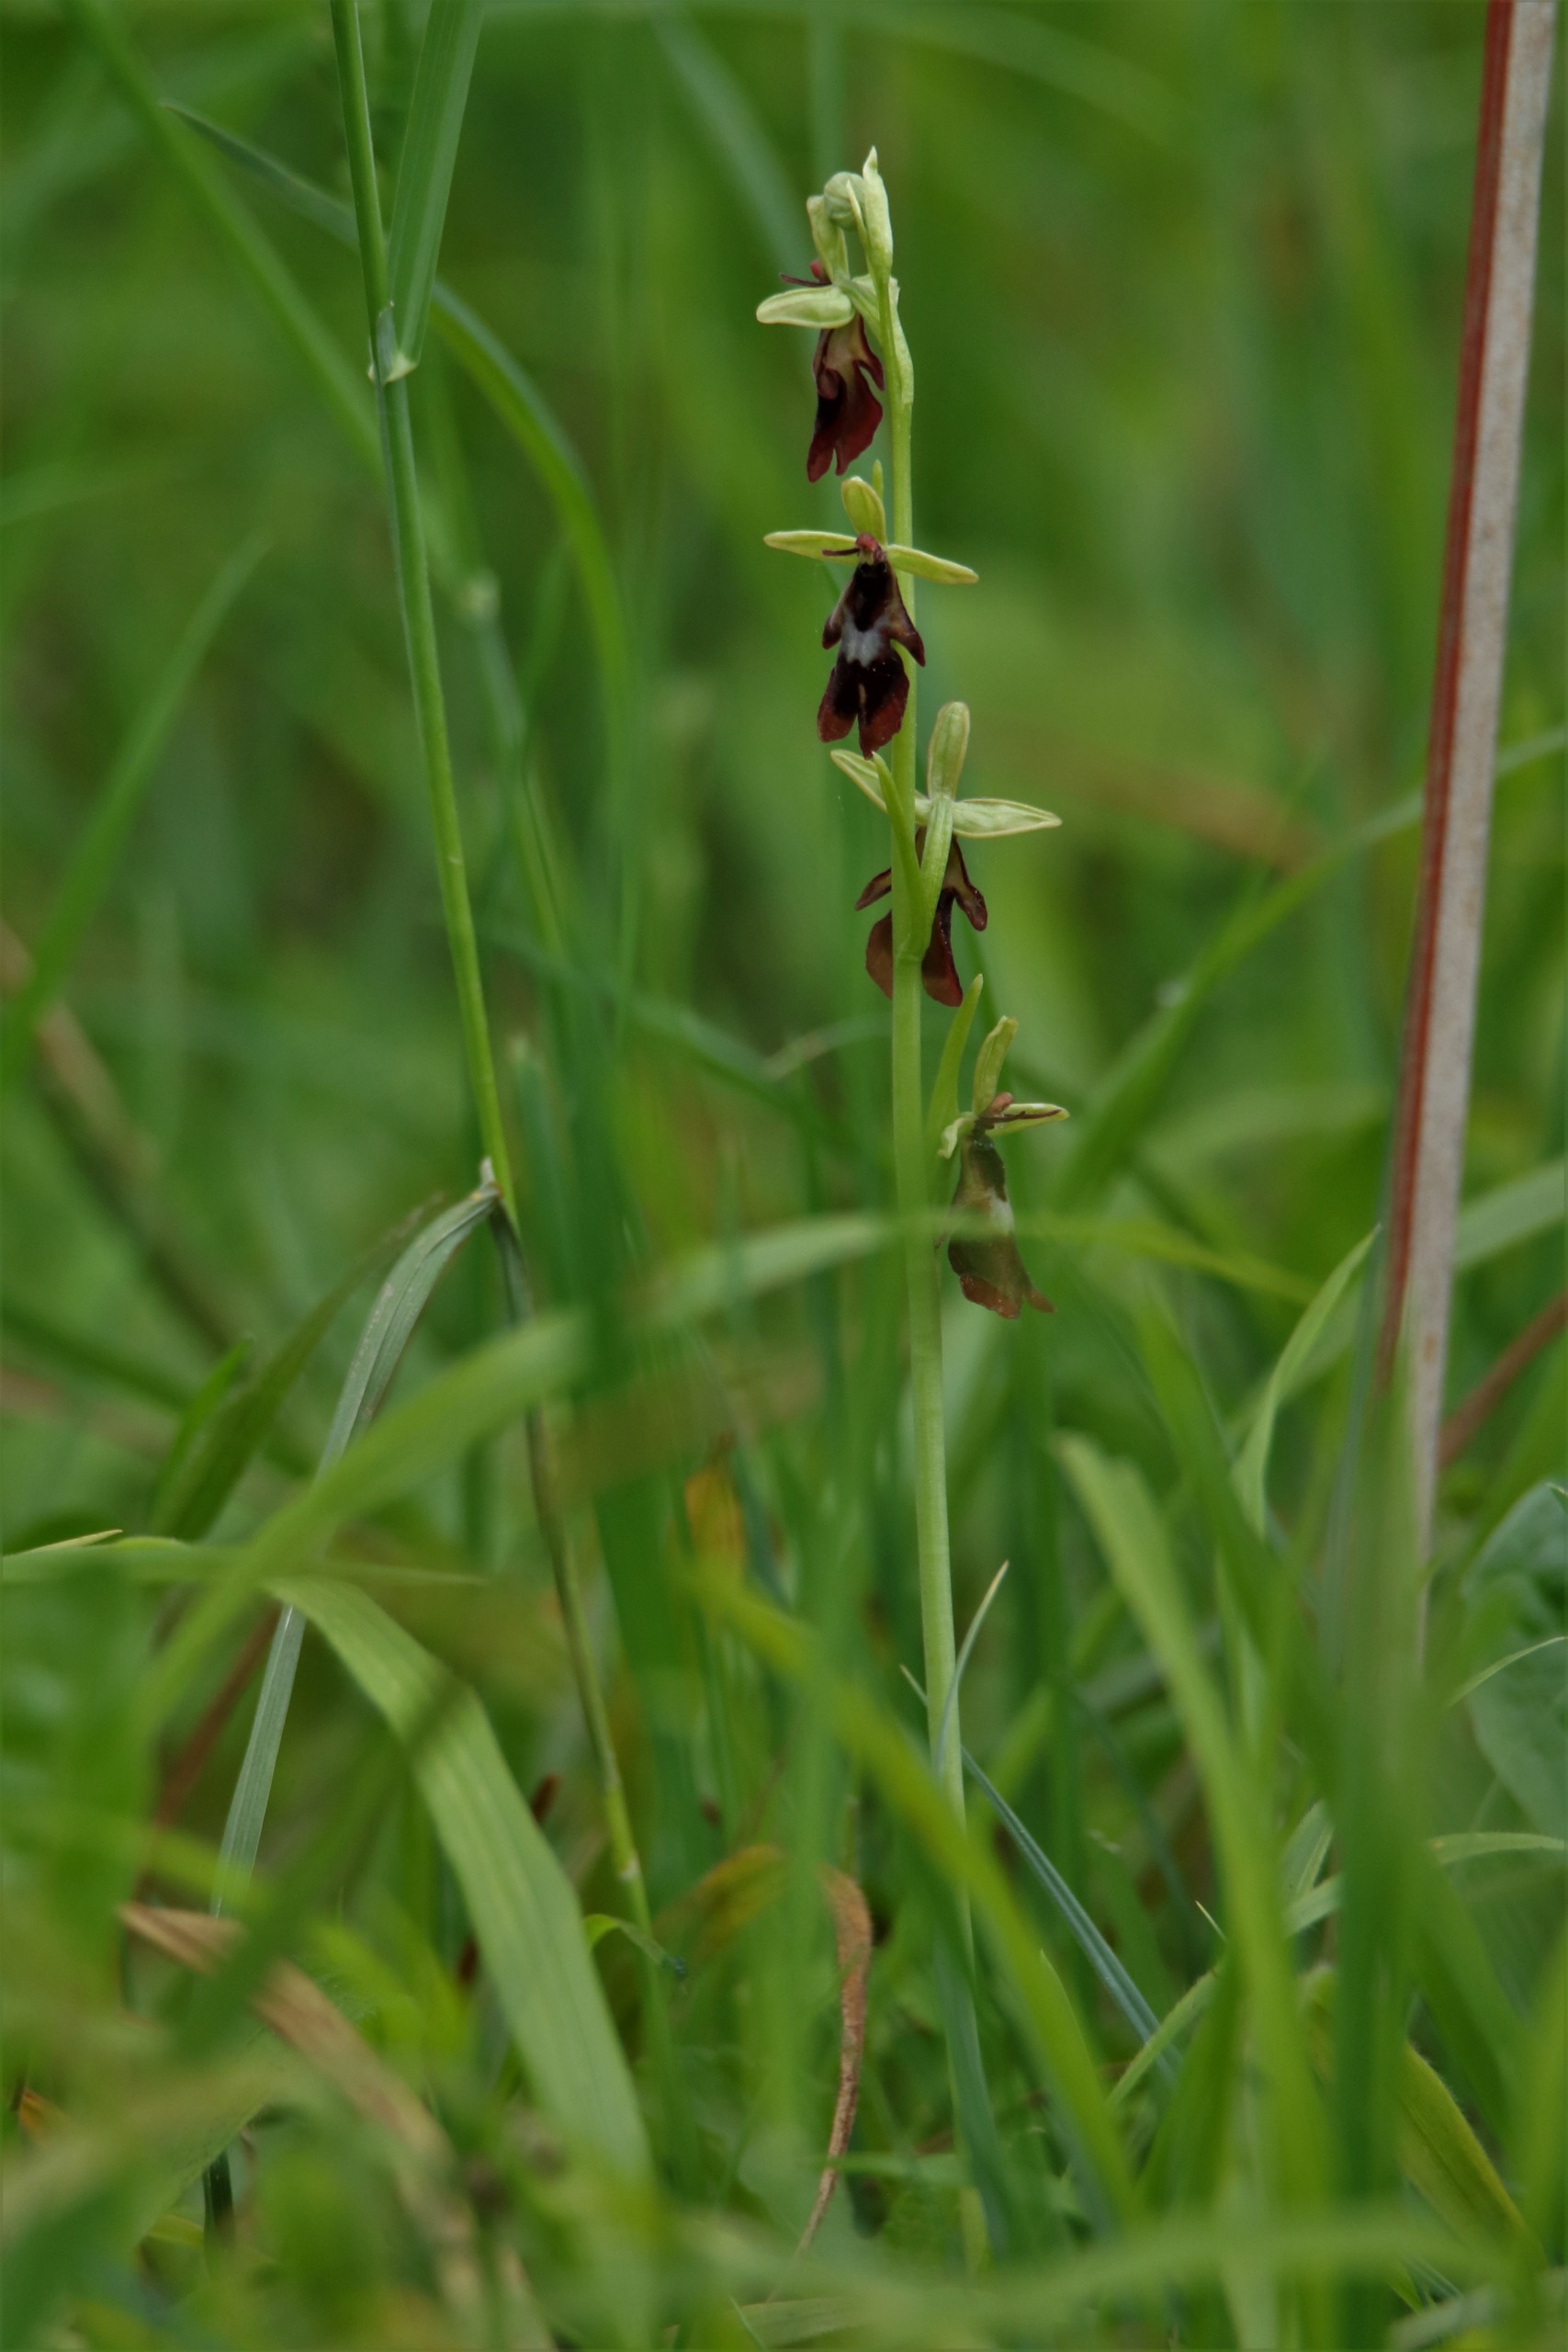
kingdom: Plantae
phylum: Tracheophyta
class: Liliopsida
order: Asparagales
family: Orchidaceae
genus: Ophrys
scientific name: Ophrys insectifera
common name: Flueblomst
